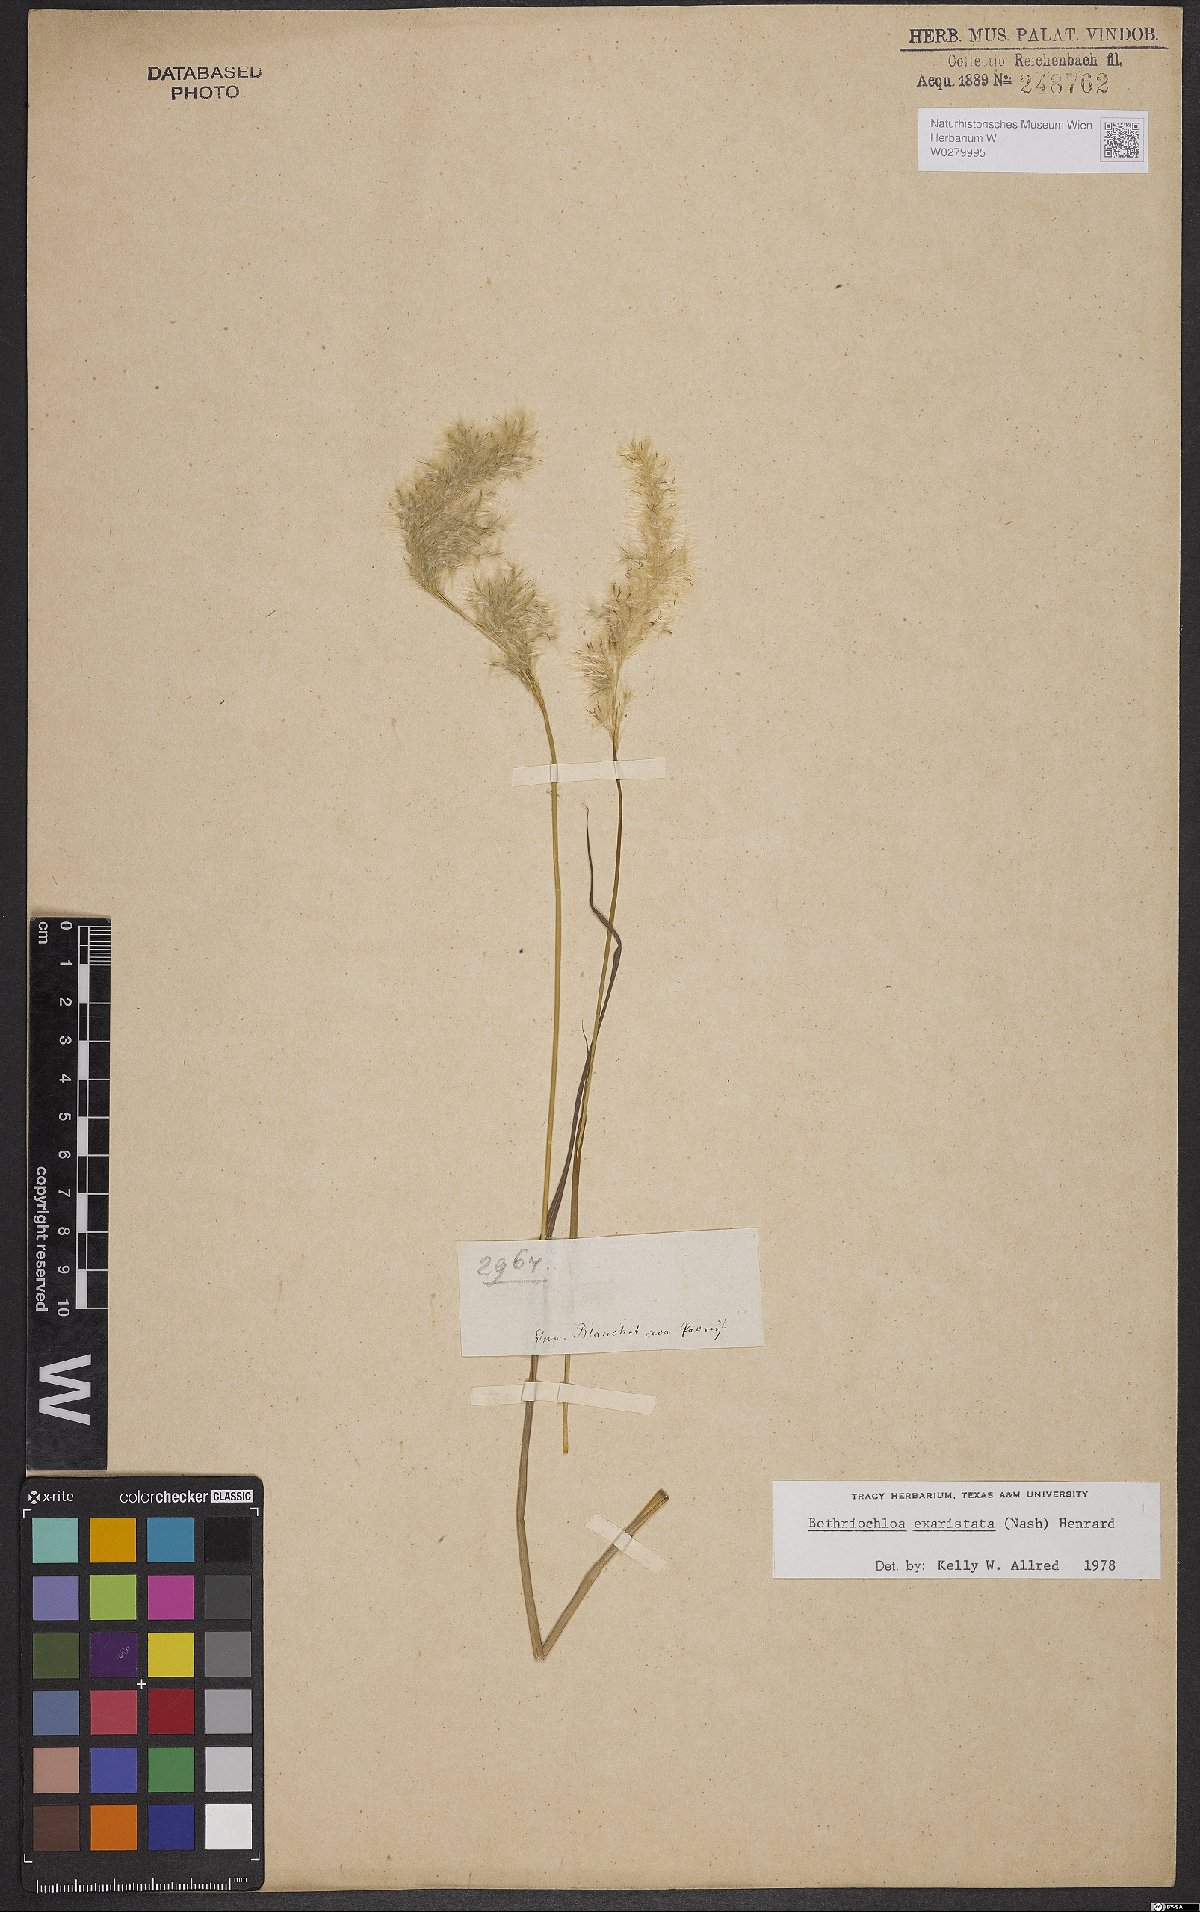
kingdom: Plantae
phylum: Tracheophyta
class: Liliopsida
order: Poales
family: Poaceae
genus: Bothriochloa
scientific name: Bothriochloa exaristata
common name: Awnless bluestem
